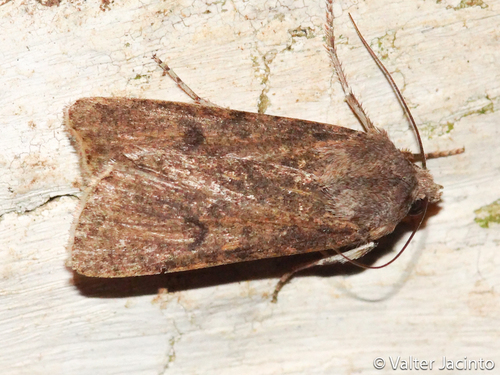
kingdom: Animalia
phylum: Arthropoda
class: Insecta
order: Lepidoptera
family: Noctuidae
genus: Agrotis
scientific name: Agrotis trux
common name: Crescent dart
